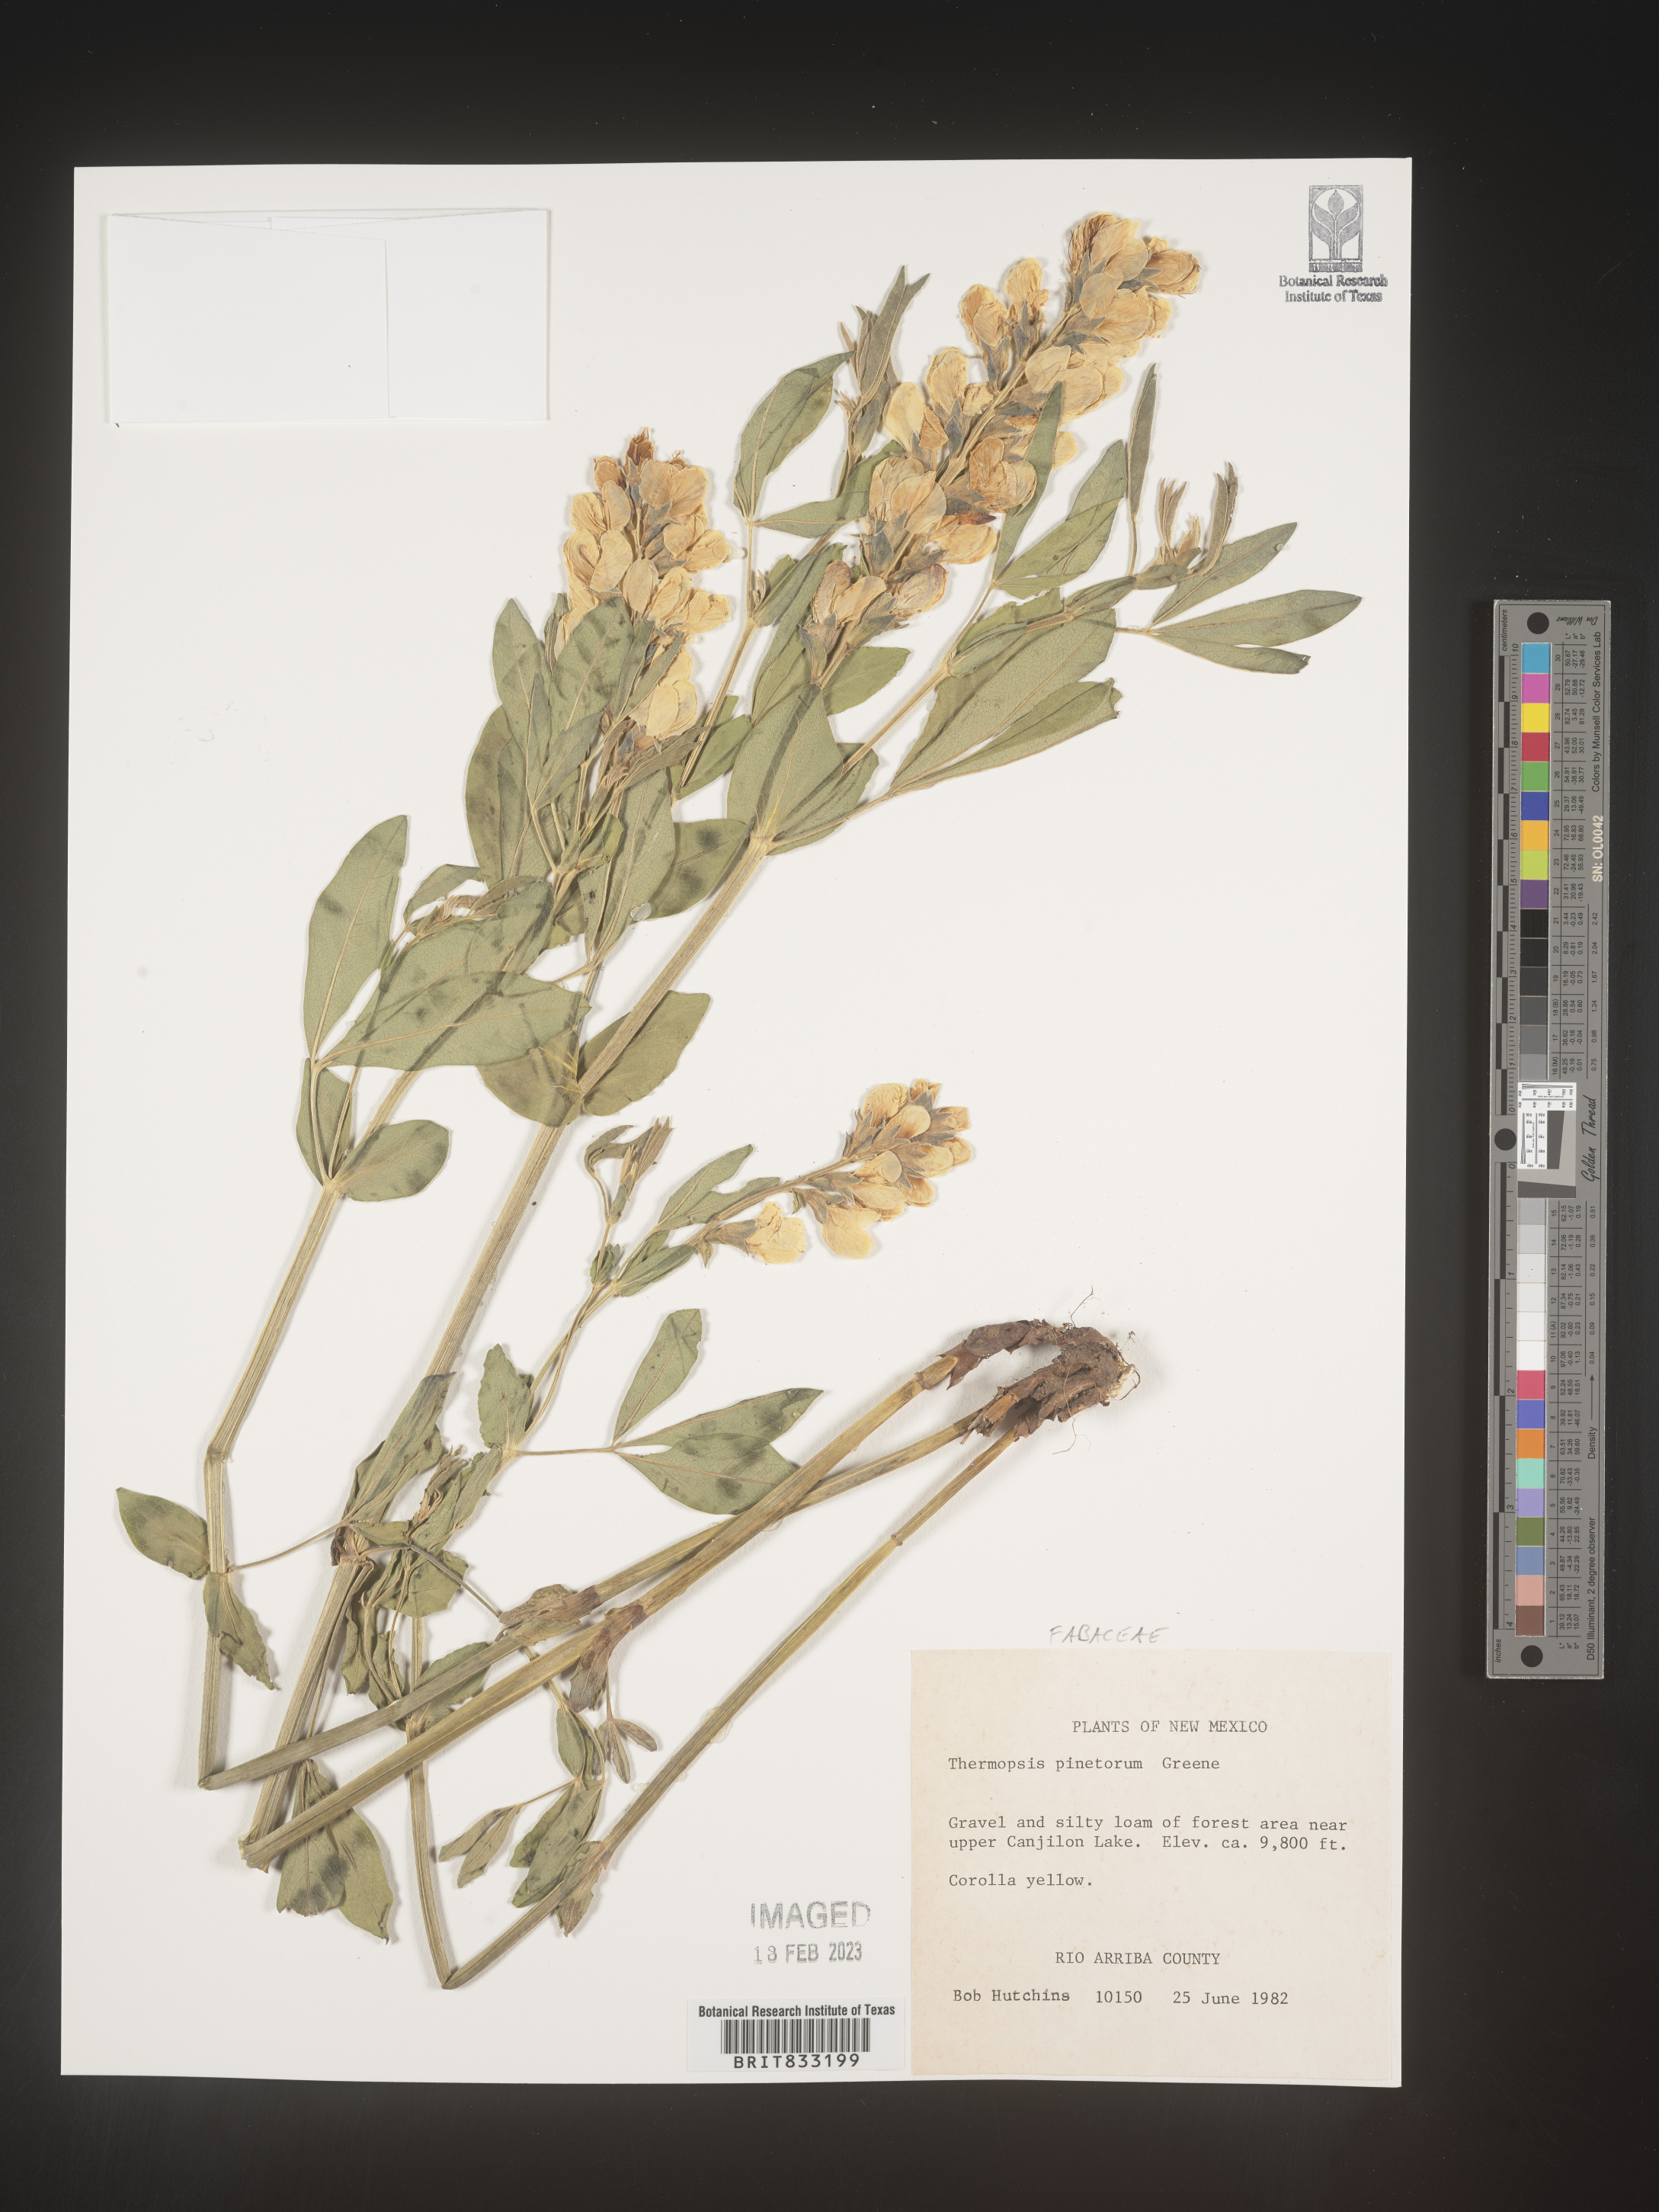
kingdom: Plantae
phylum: Tracheophyta
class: Magnoliopsida
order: Fabales
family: Fabaceae
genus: Thermopsis
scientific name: Thermopsis rhombifolia
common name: Circle-pod-pea
